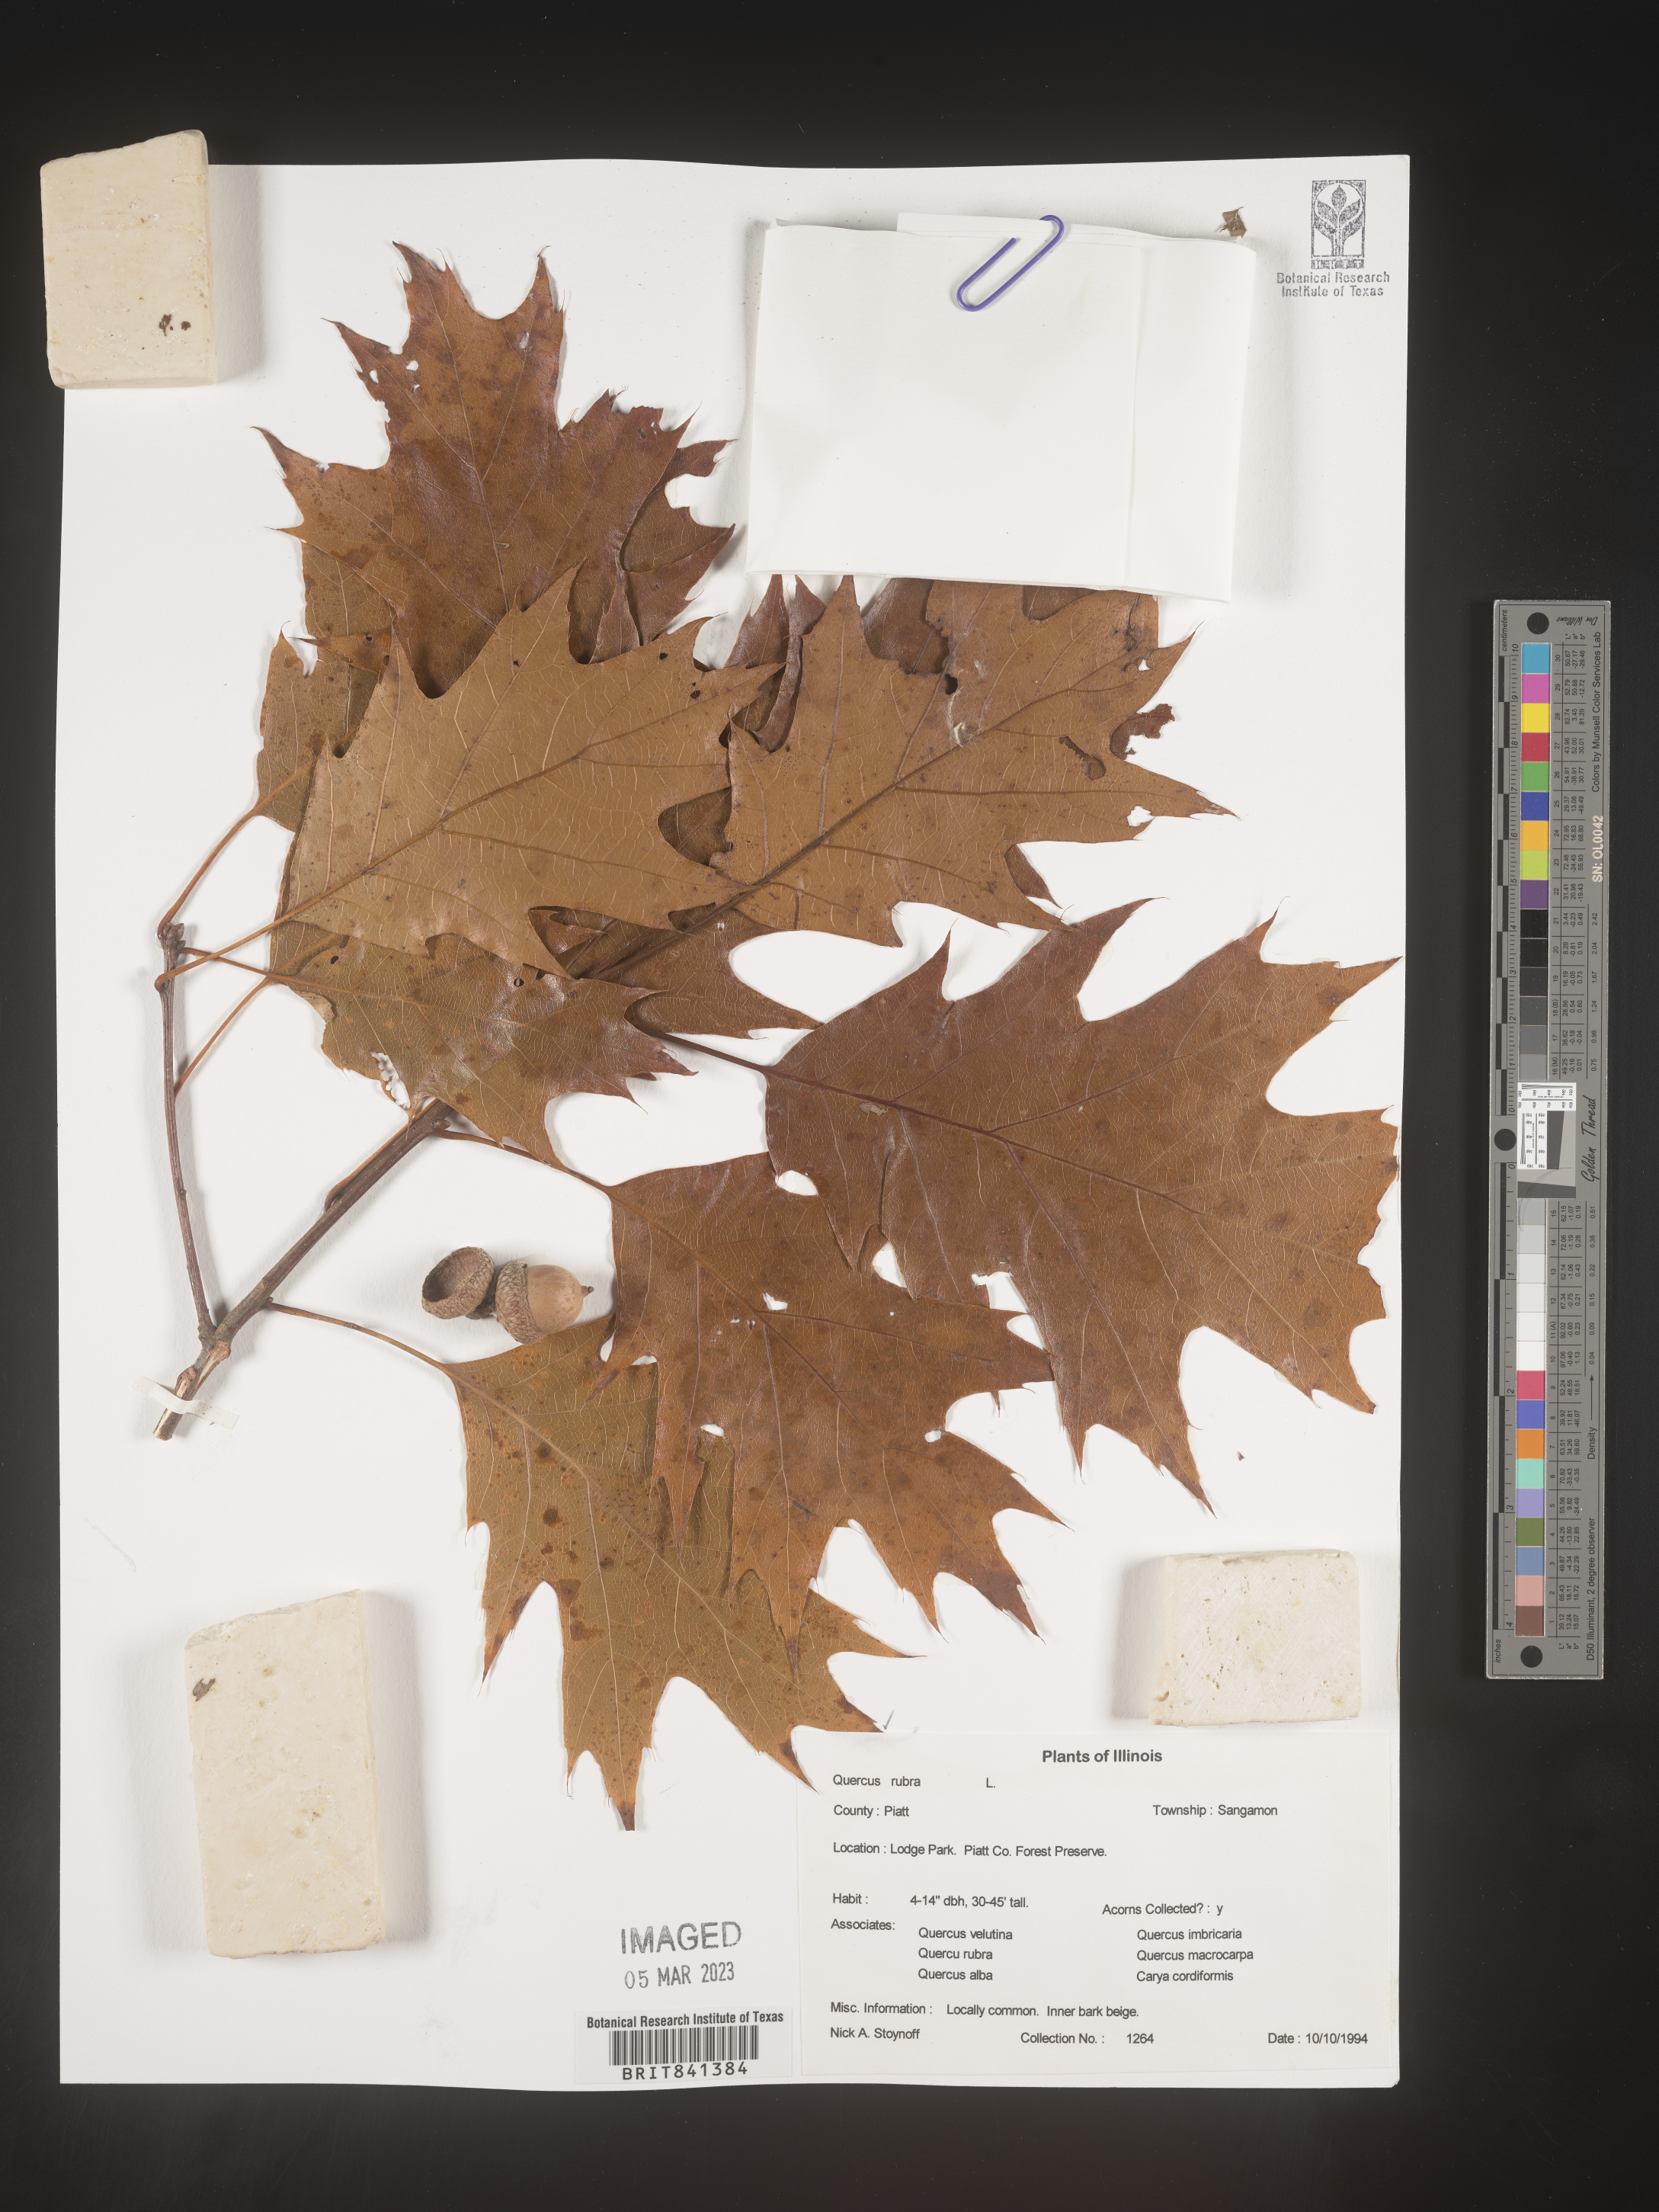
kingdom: Plantae
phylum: Tracheophyta
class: Magnoliopsida
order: Fagales
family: Fagaceae
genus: Quercus
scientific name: Quercus rubra
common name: Red oak
